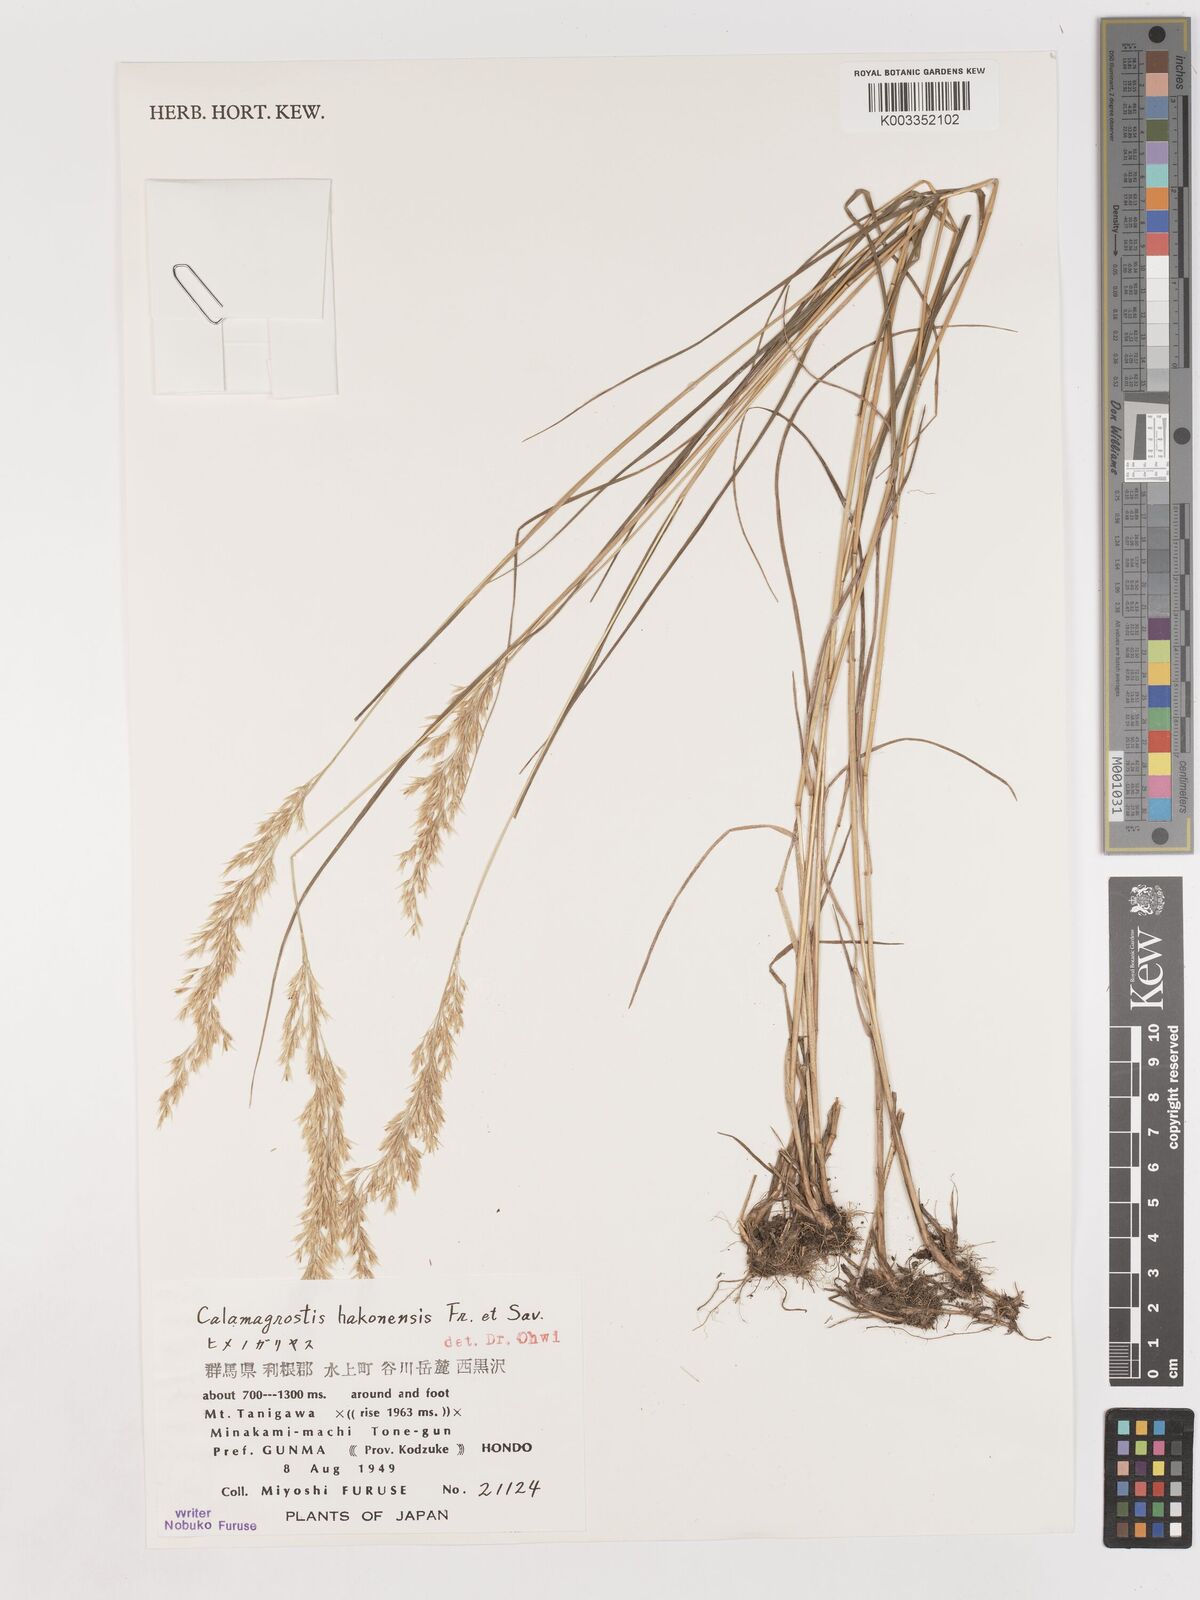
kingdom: Plantae
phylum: Tracheophyta
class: Liliopsida
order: Poales
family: Poaceae
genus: Calamagrostis
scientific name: Calamagrostis hakonensis
